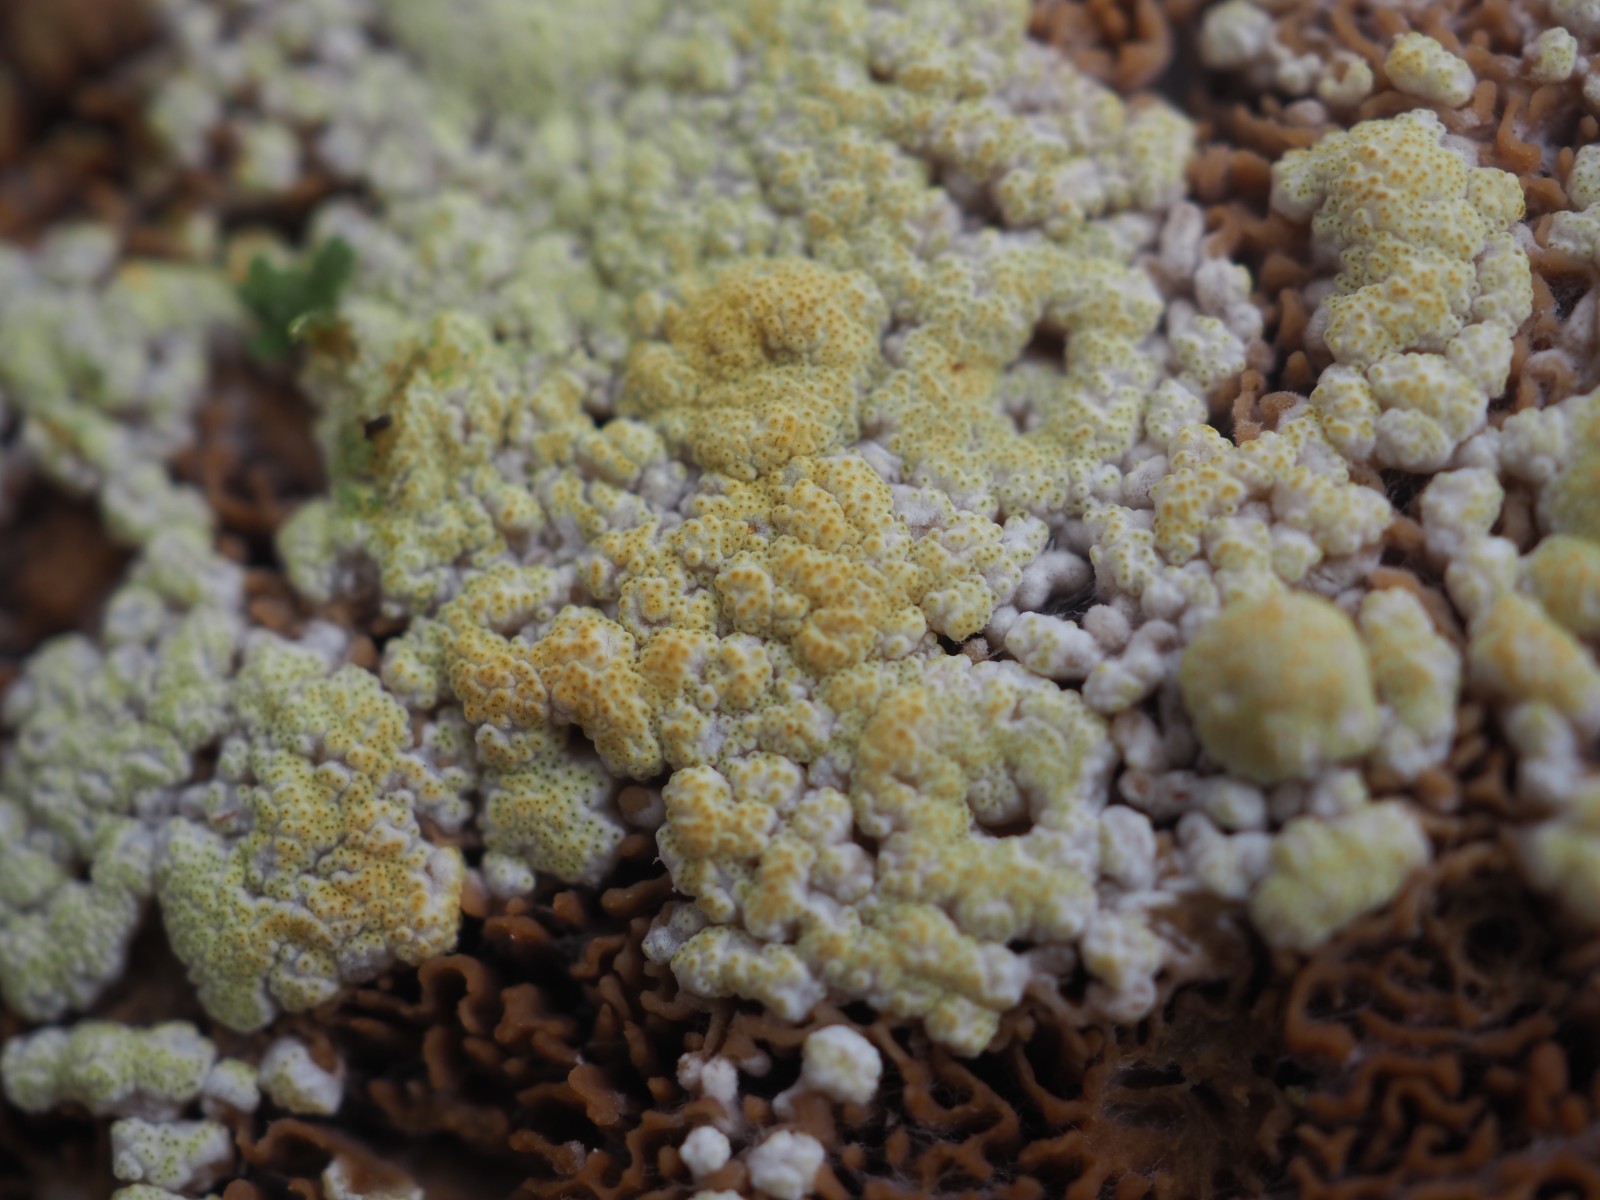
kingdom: Fungi
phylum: Ascomycota
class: Sordariomycetes
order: Hypocreales
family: Hypocreaceae
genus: Trichoderma
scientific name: Trichoderma
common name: kødkerne
